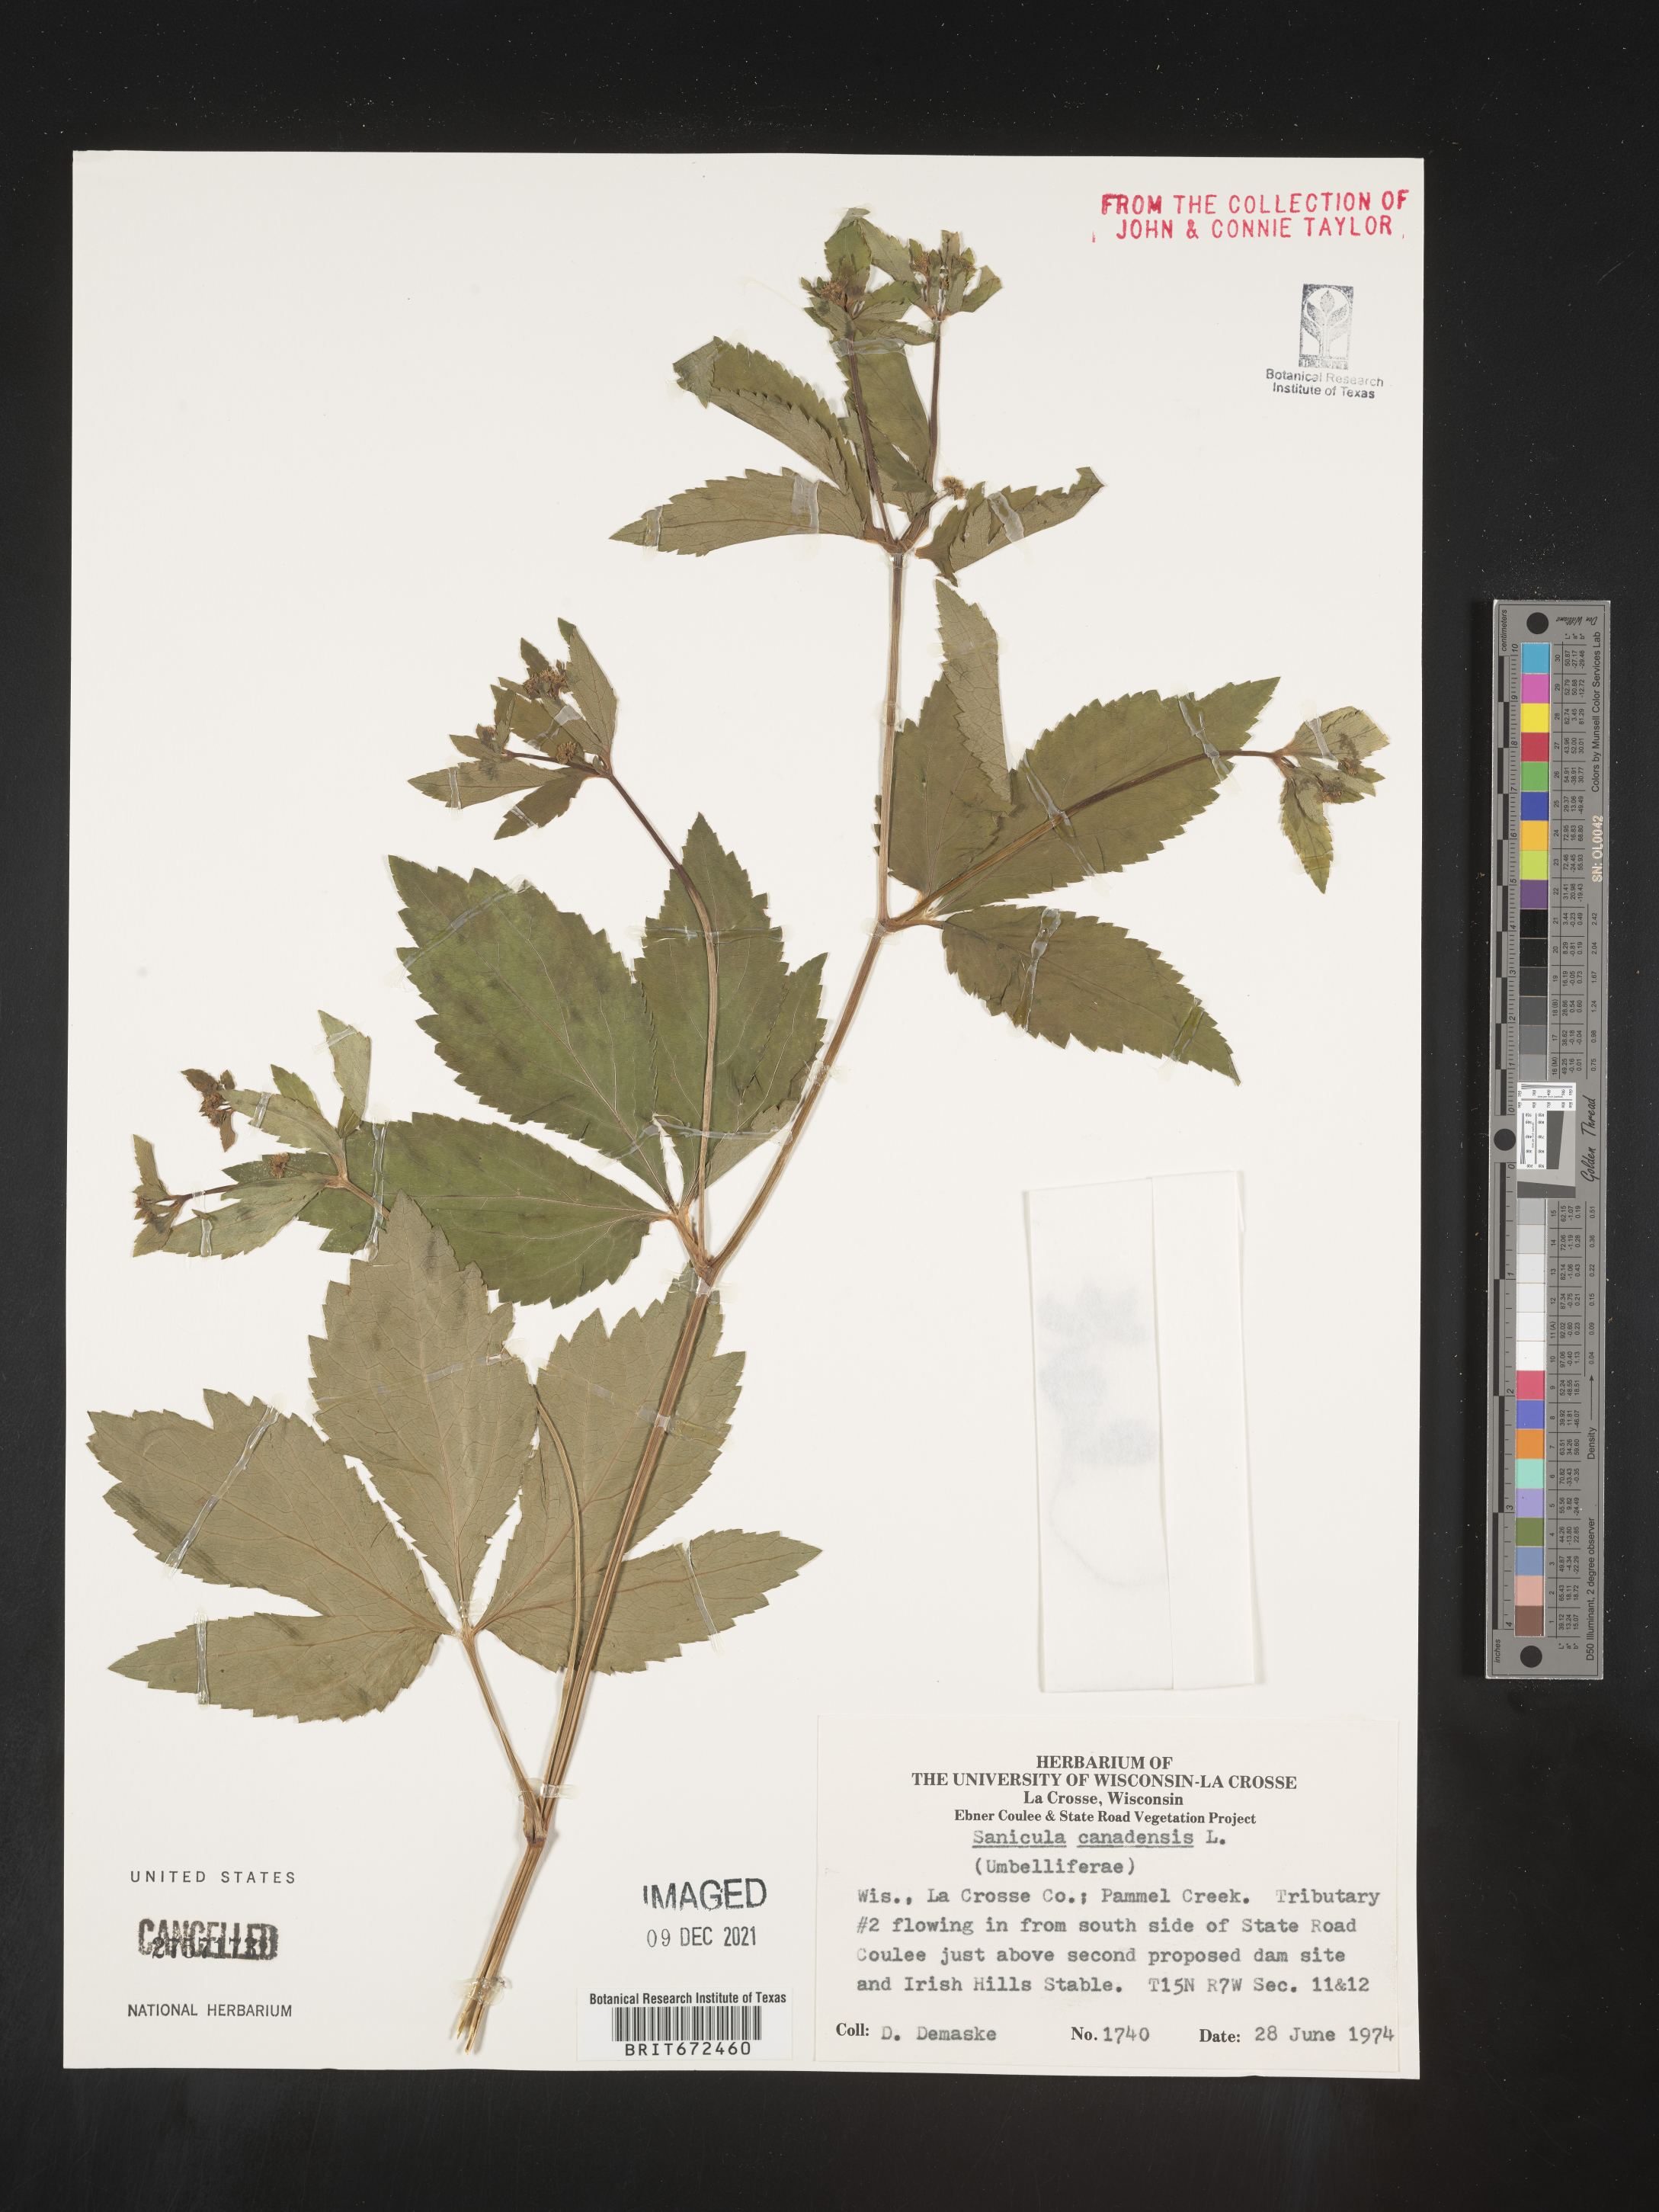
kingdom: Plantae
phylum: Tracheophyta
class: Magnoliopsida
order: Apiales
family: Apiaceae
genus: Sanicula
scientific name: Sanicula canadensis
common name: Canada sanicle
